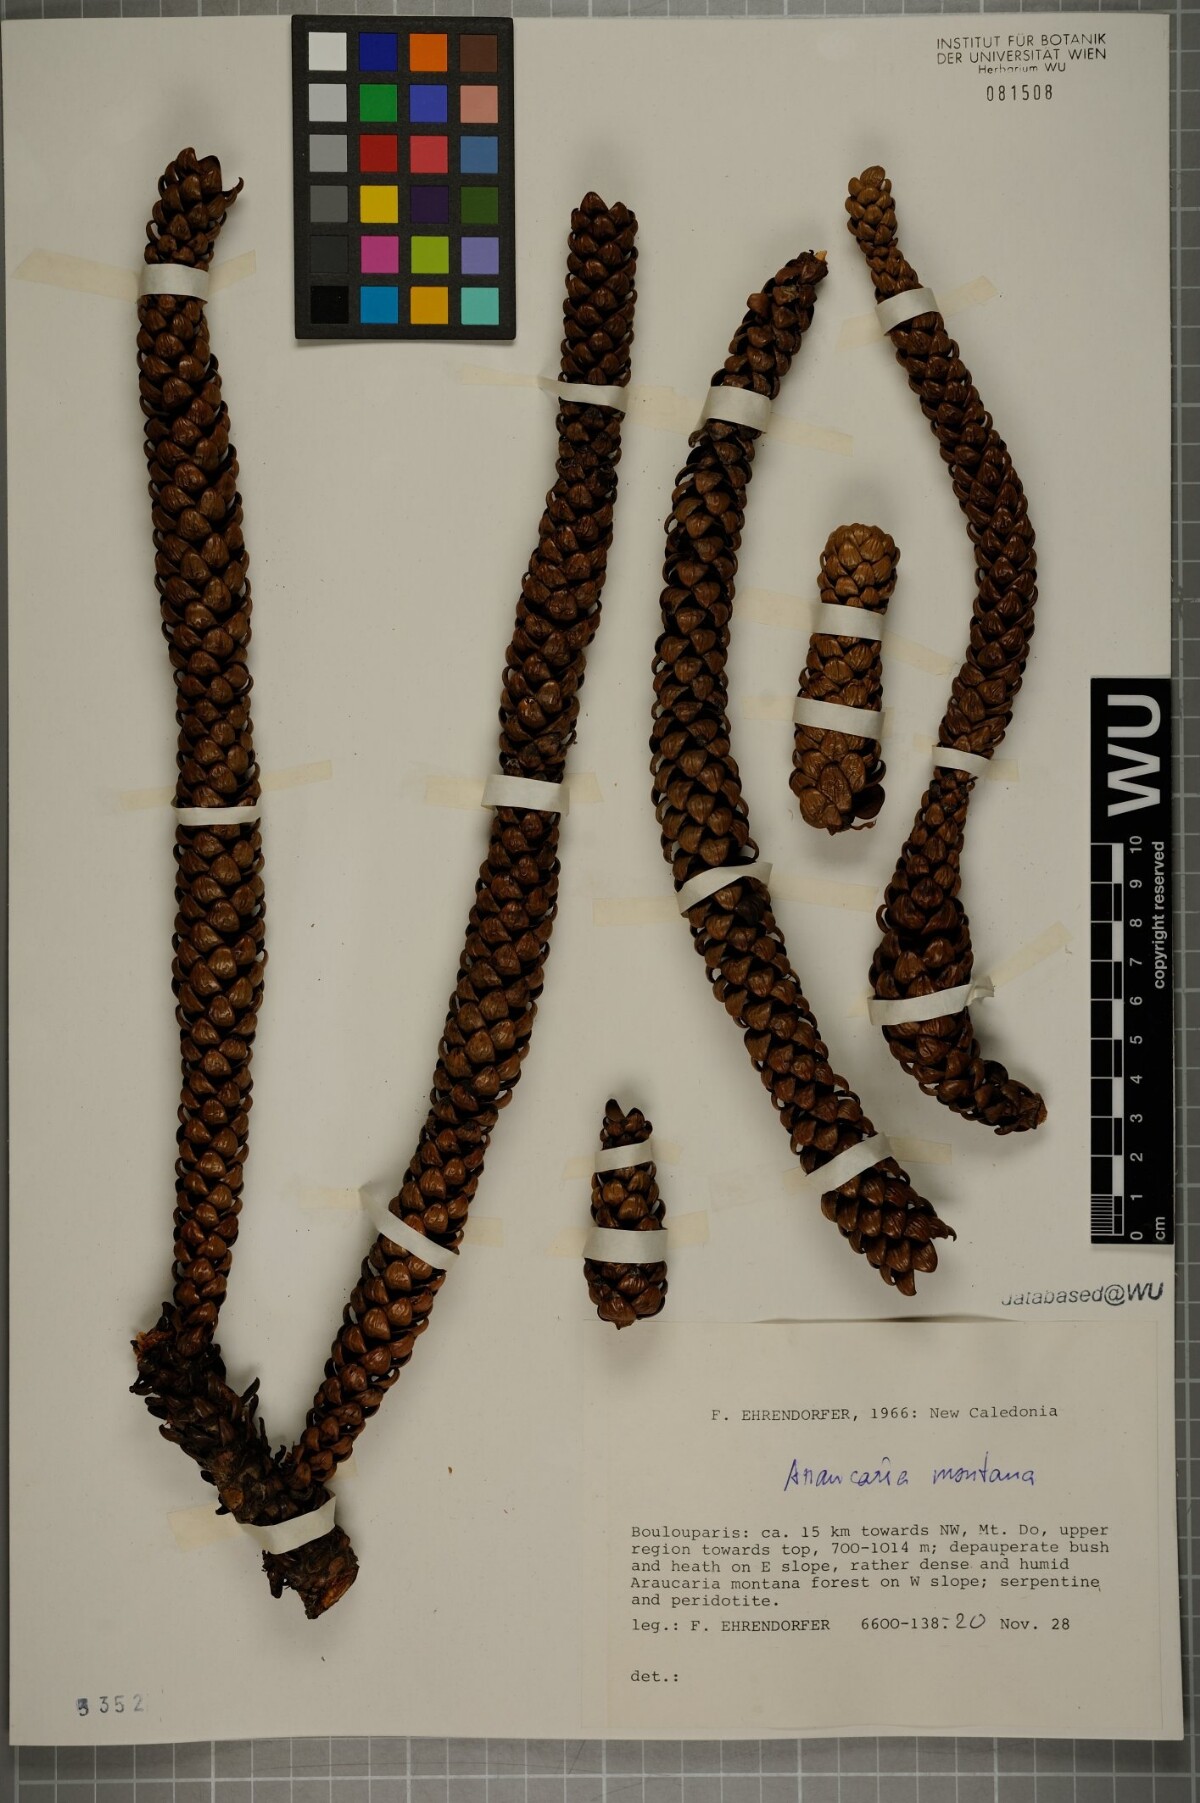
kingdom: Plantae
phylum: Tracheophyta
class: Pinopsida
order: Pinales
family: Araucariaceae
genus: Araucaria
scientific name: Araucaria montana
